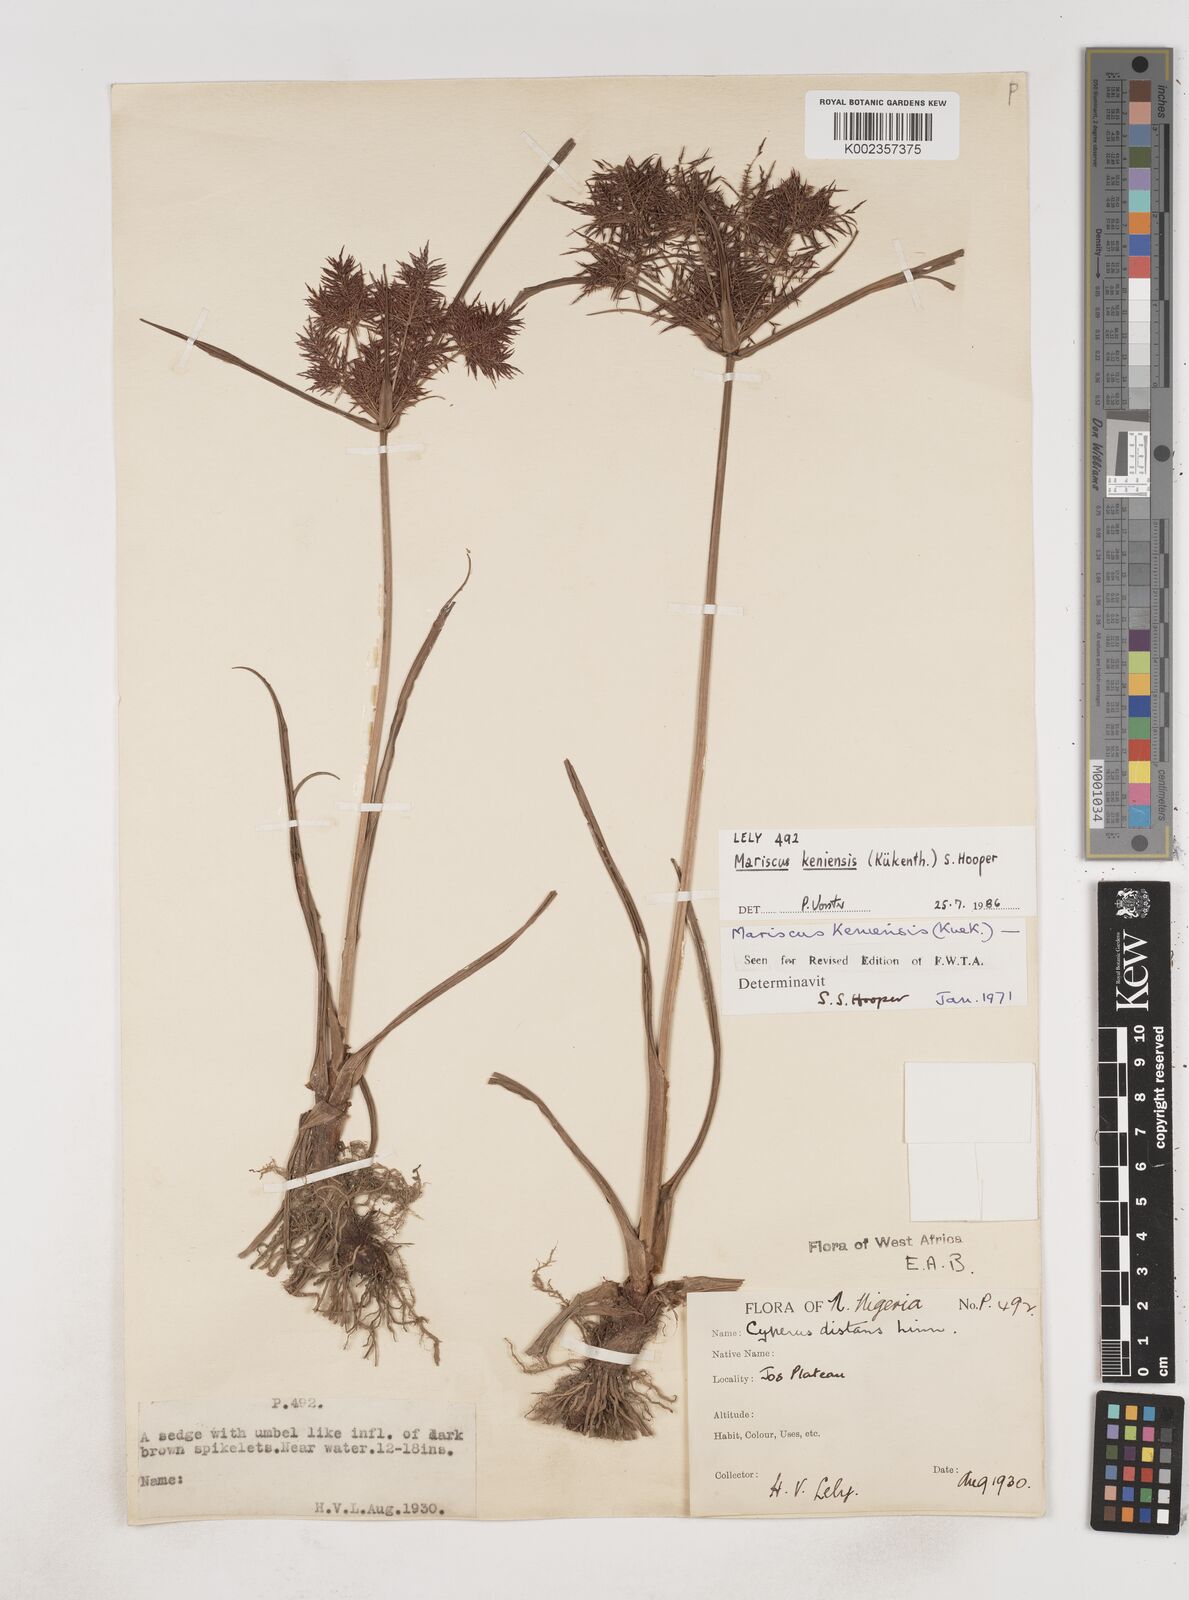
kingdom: Plantae
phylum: Tracheophyta
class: Liliopsida
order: Poales
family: Cyperaceae
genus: Cyperus
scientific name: Cyperus distans
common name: Slender cyperus
